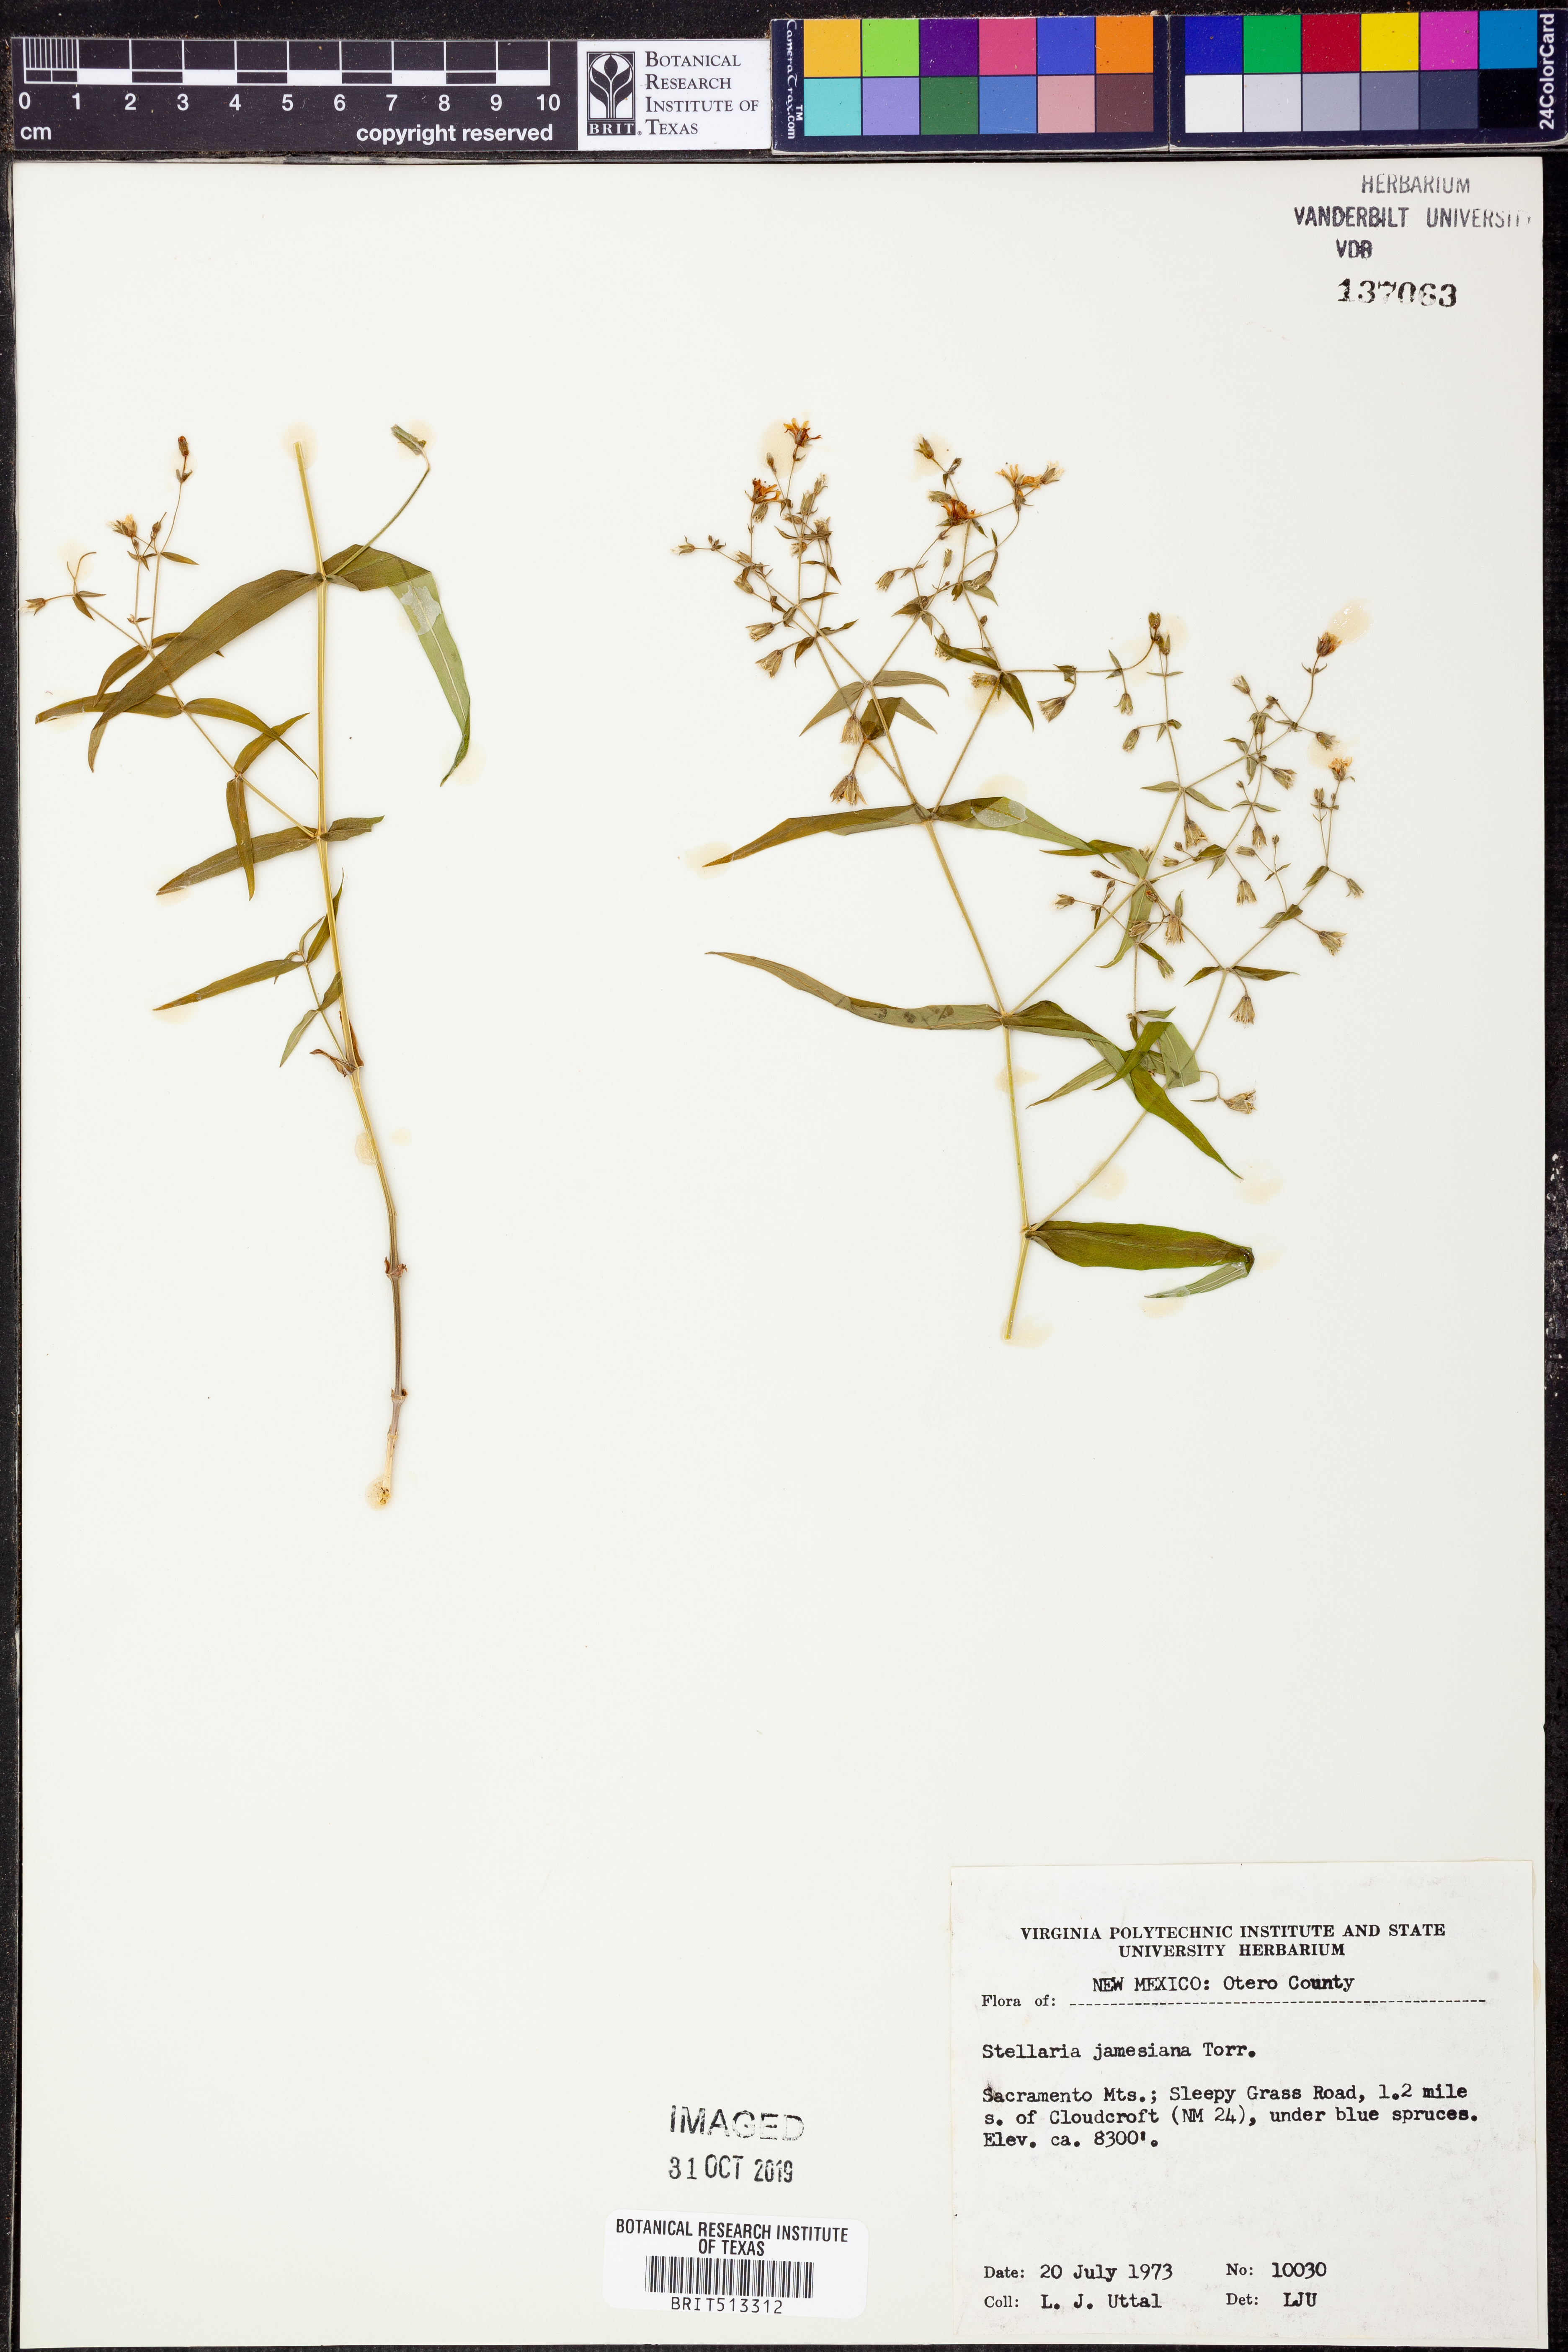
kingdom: Plantae
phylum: Tracheophyta
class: Magnoliopsida
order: Caryophyllales
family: Caryophyllaceae
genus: Schizotechium
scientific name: Schizotechium jamesianum
